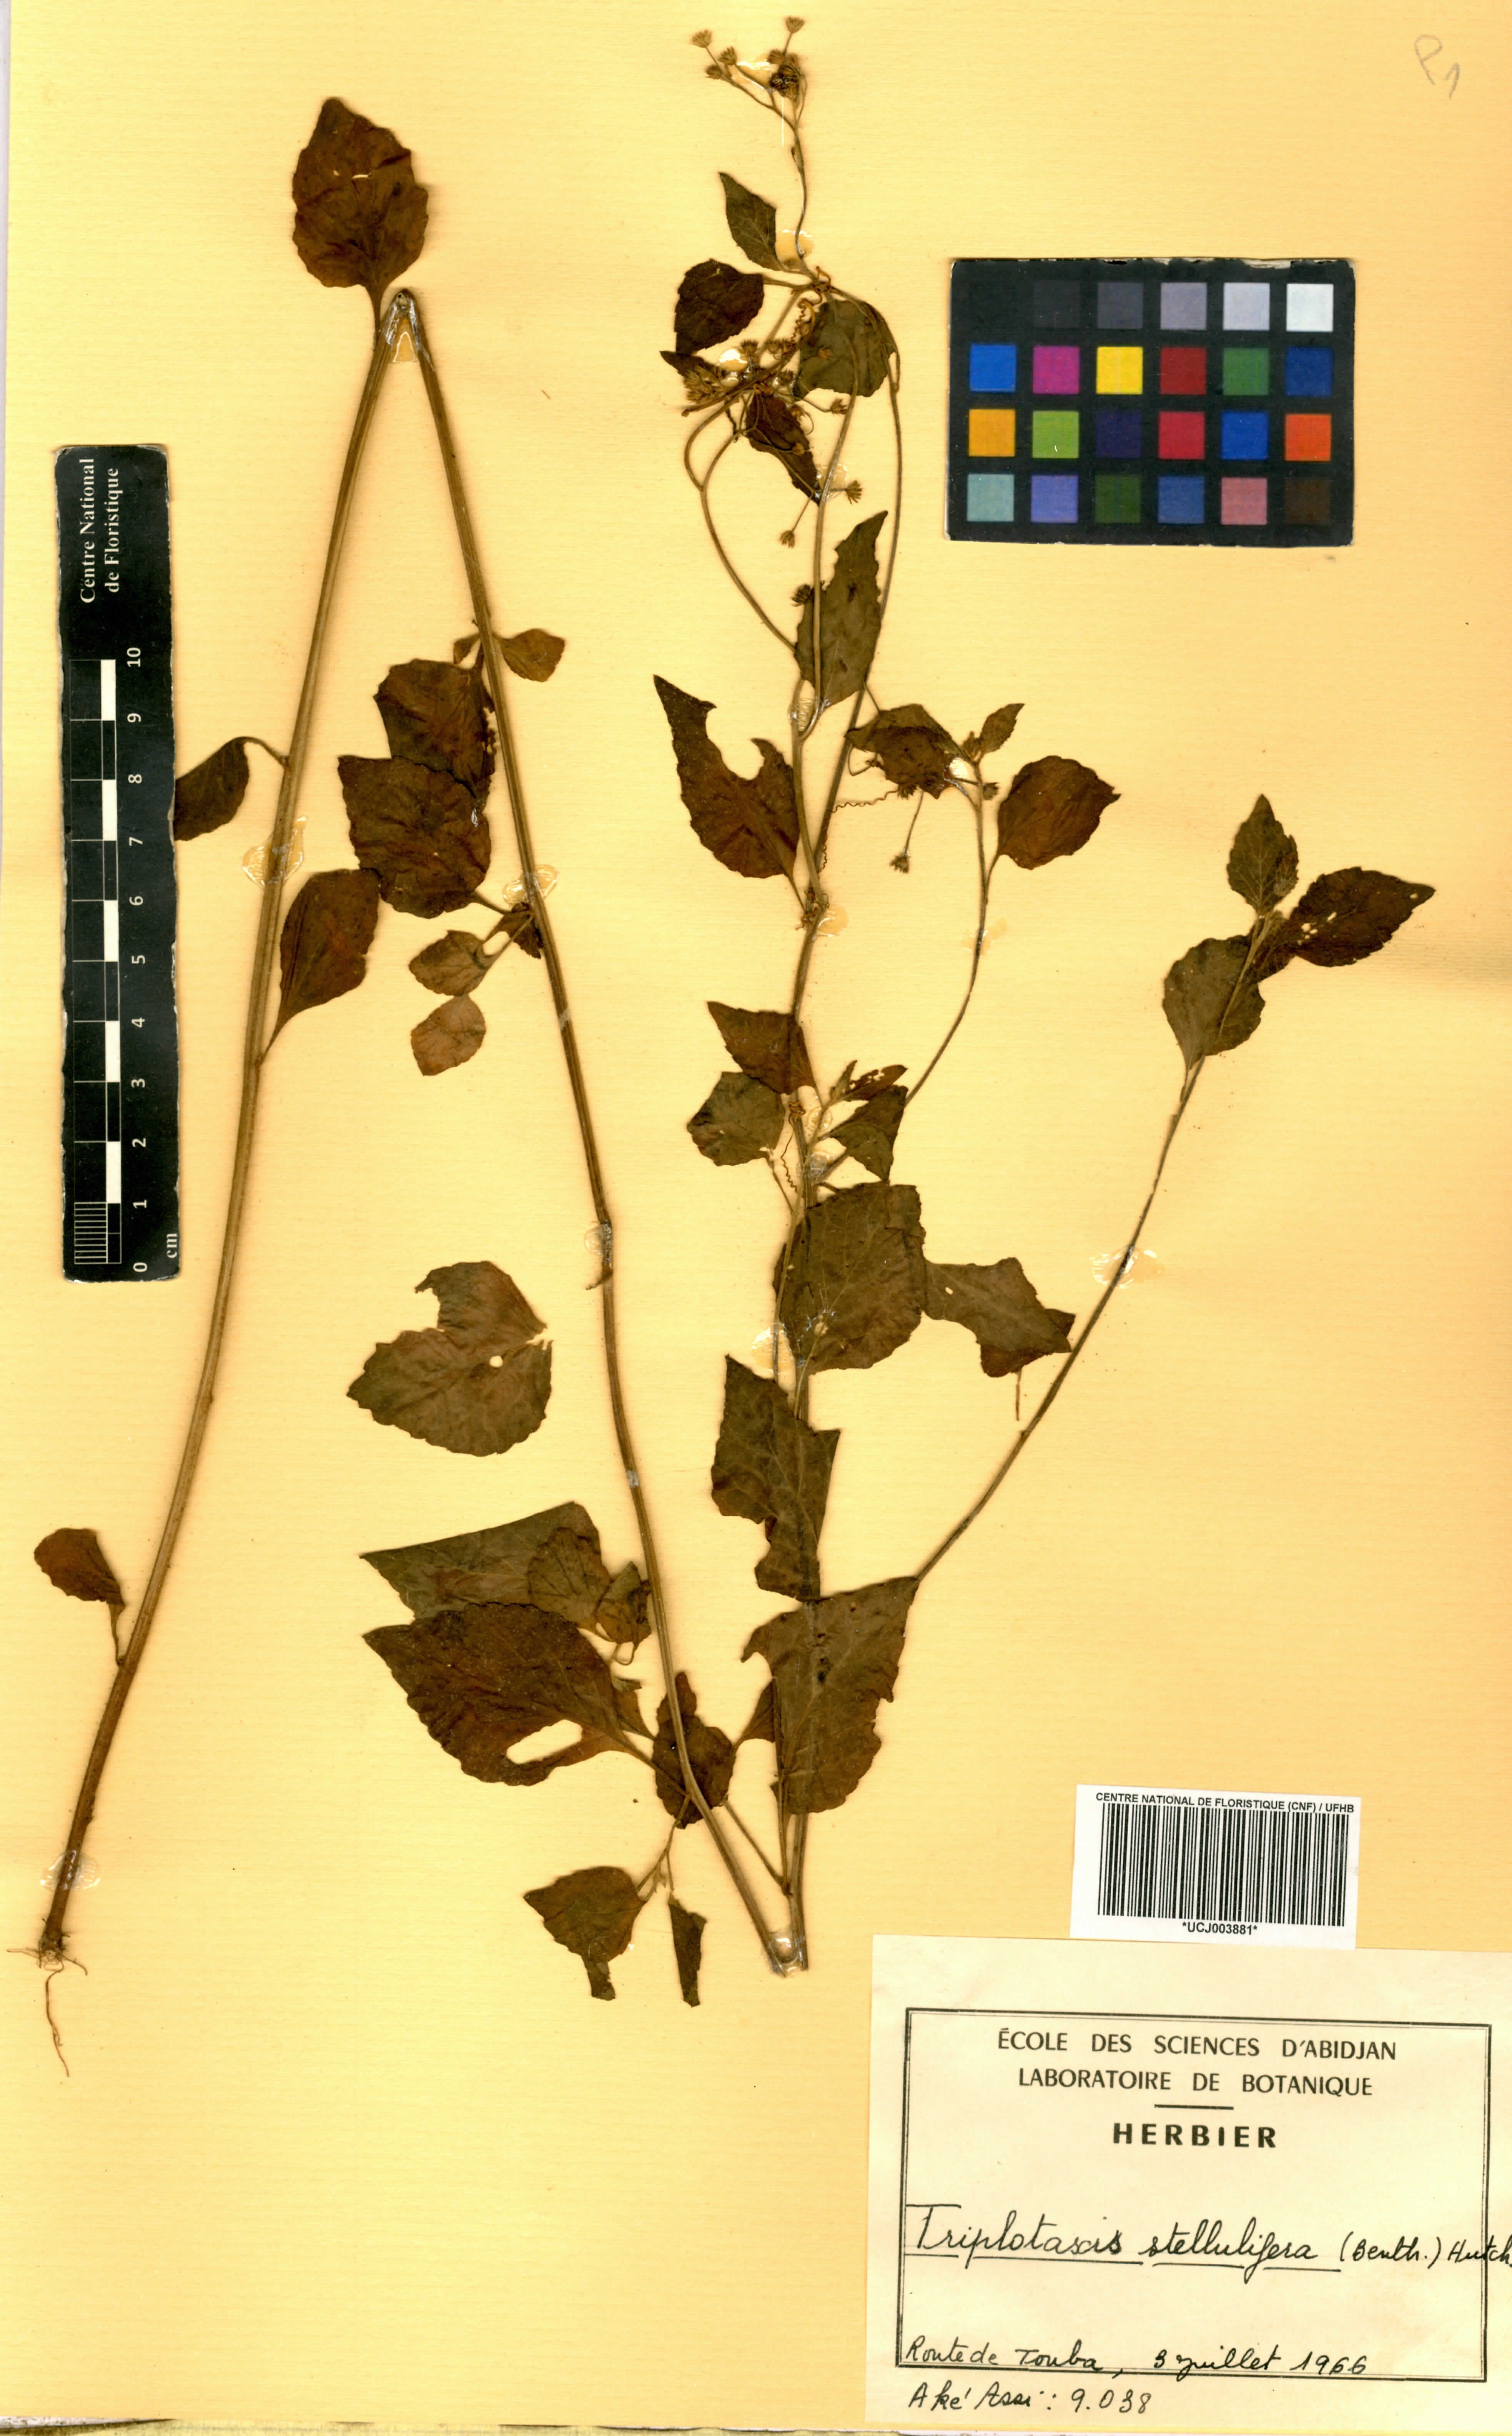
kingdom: Plantae
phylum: Tracheophyta
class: Magnoliopsida
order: Asterales
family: Asteraceae
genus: Cyanthillium
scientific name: Cyanthillium stelluliferum
